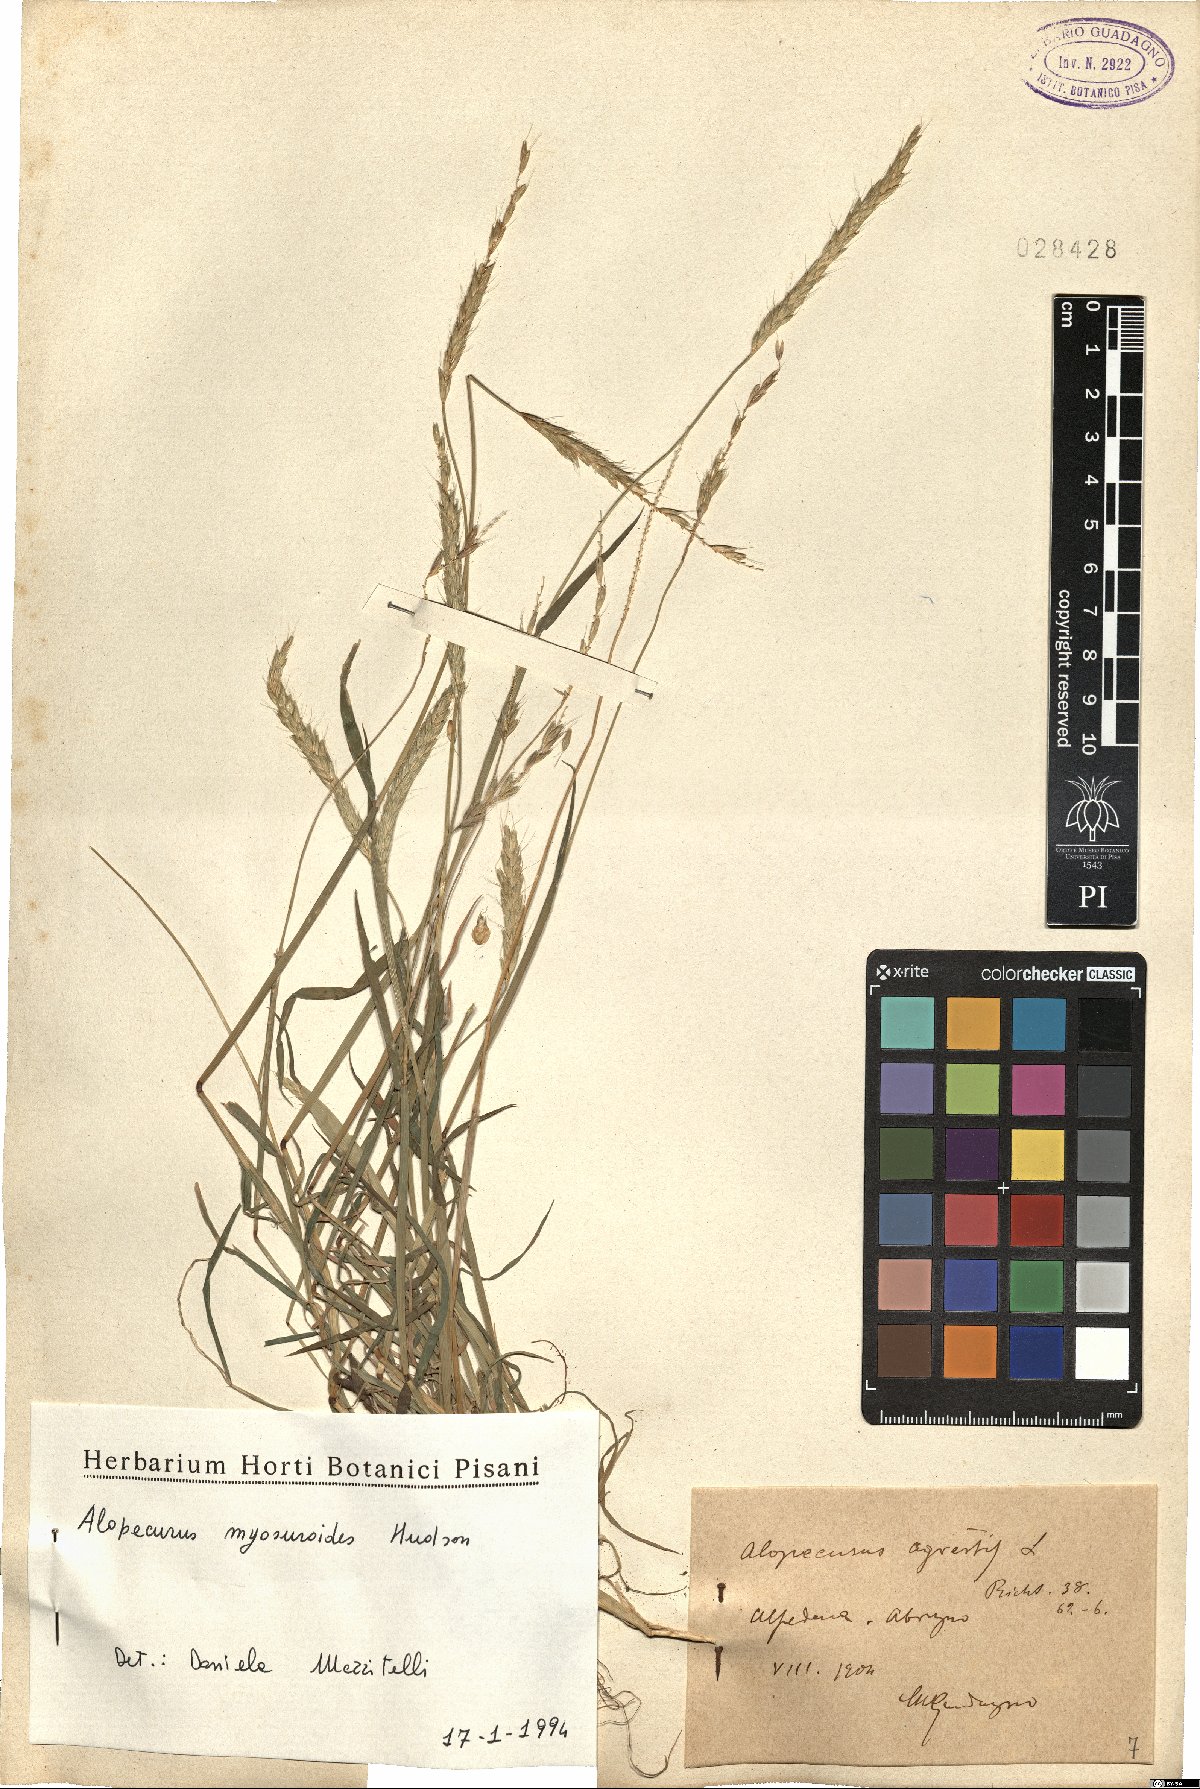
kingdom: Plantae
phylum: Tracheophyta
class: Liliopsida
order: Poales
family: Poaceae
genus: Alopecurus
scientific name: Alopecurus myosuroides
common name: Black-grass
